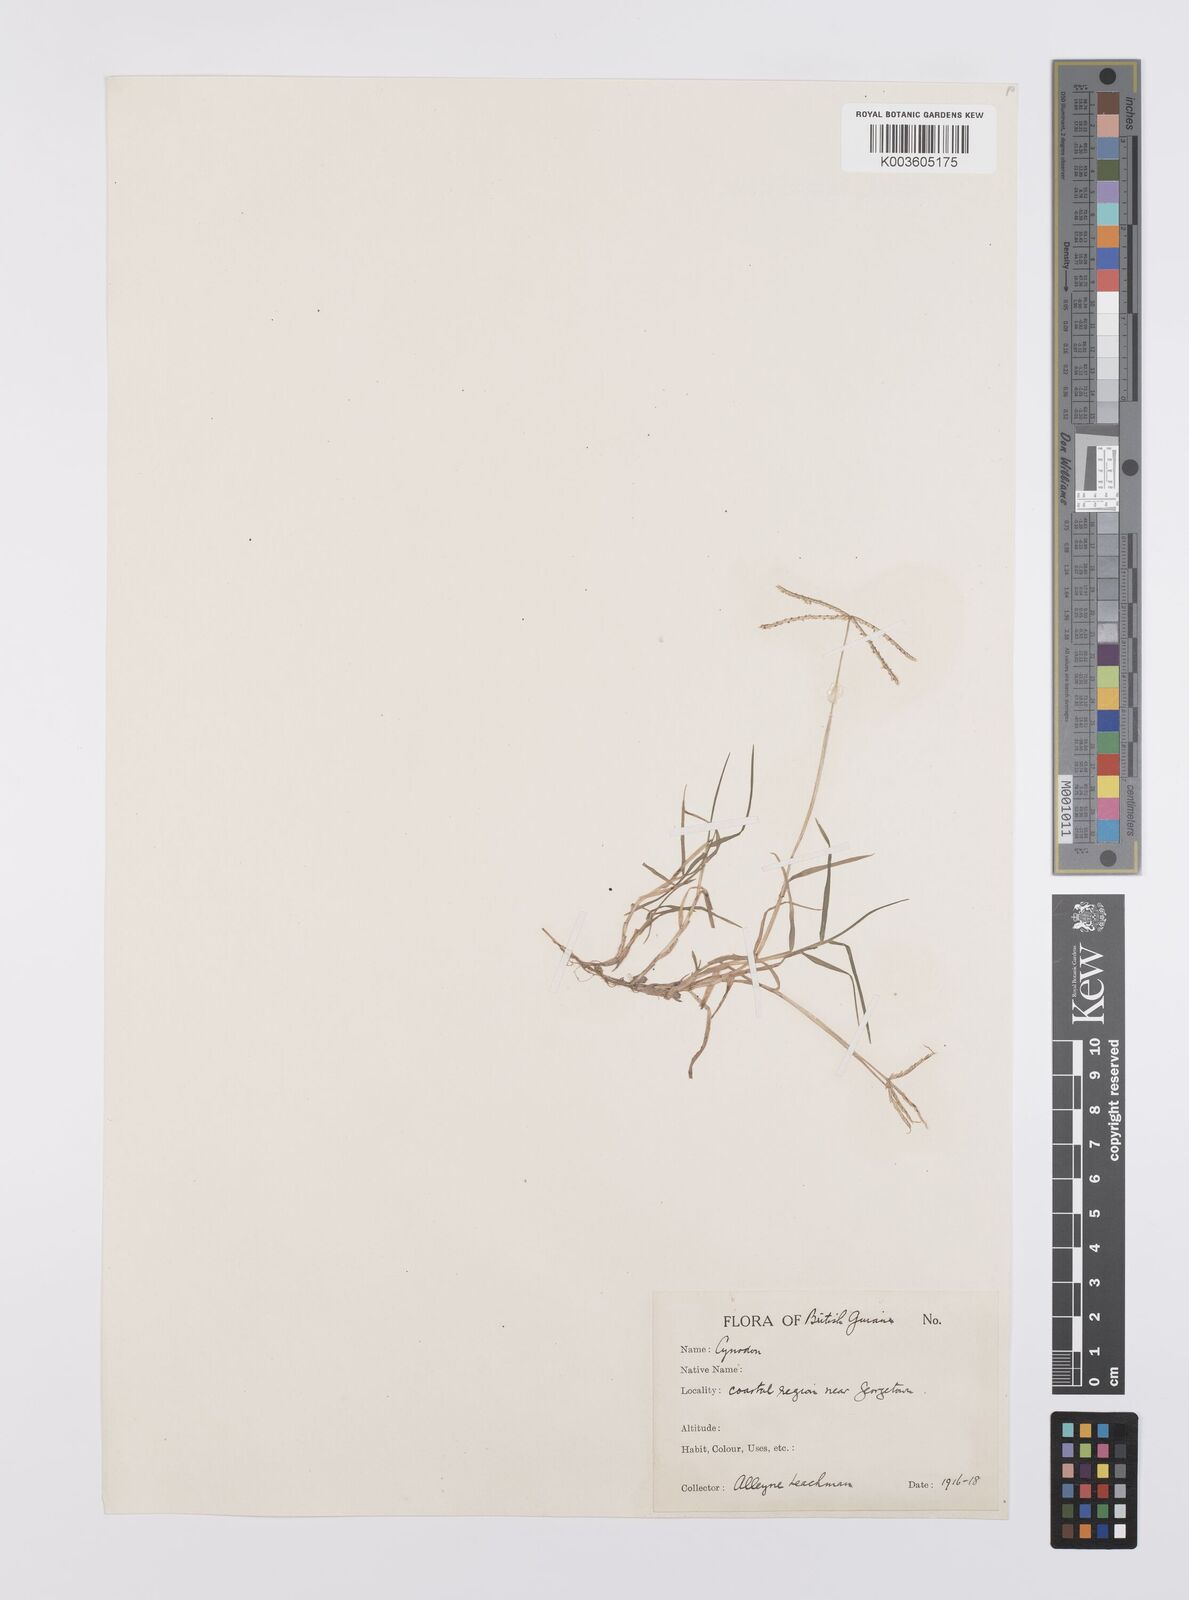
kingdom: Plantae
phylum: Tracheophyta
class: Liliopsida
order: Poales
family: Poaceae
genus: Cynodon
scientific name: Cynodon dactylon
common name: Bermuda grass
